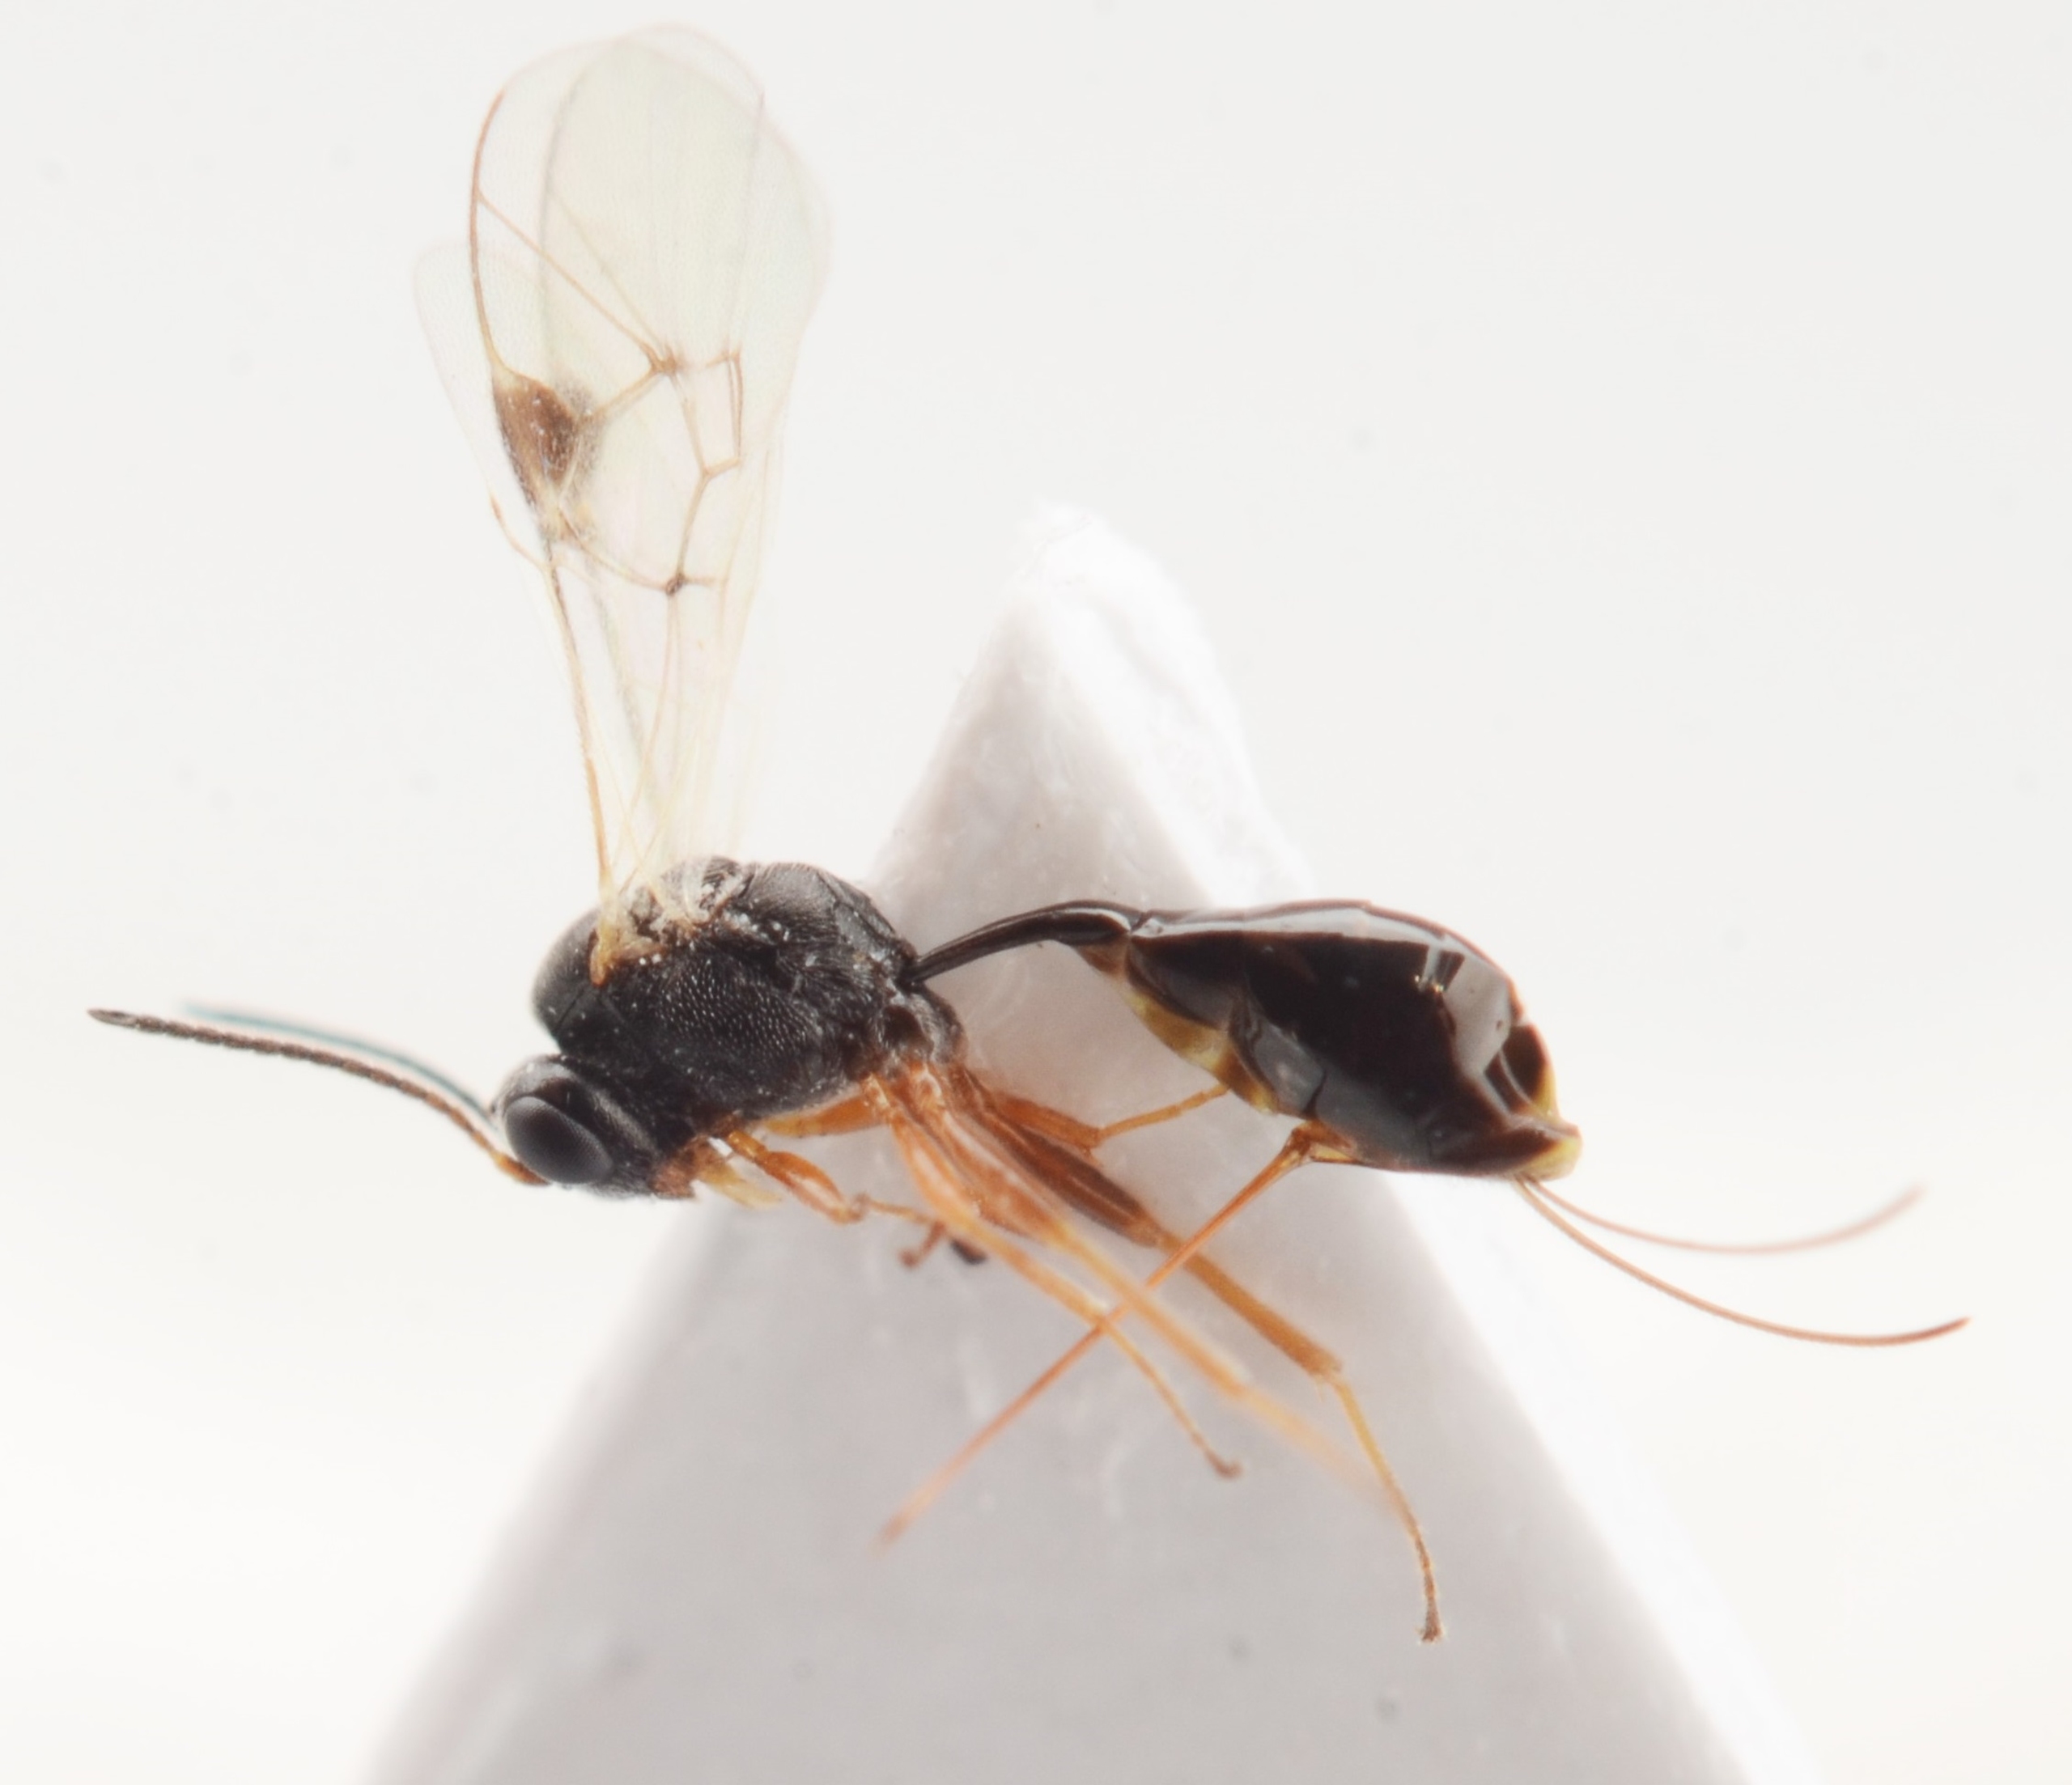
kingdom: Animalia
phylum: Arthropoda
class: Insecta
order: Hymenoptera
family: Ichneumonidae
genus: Aneuclis
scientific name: Aneuclis incidens
